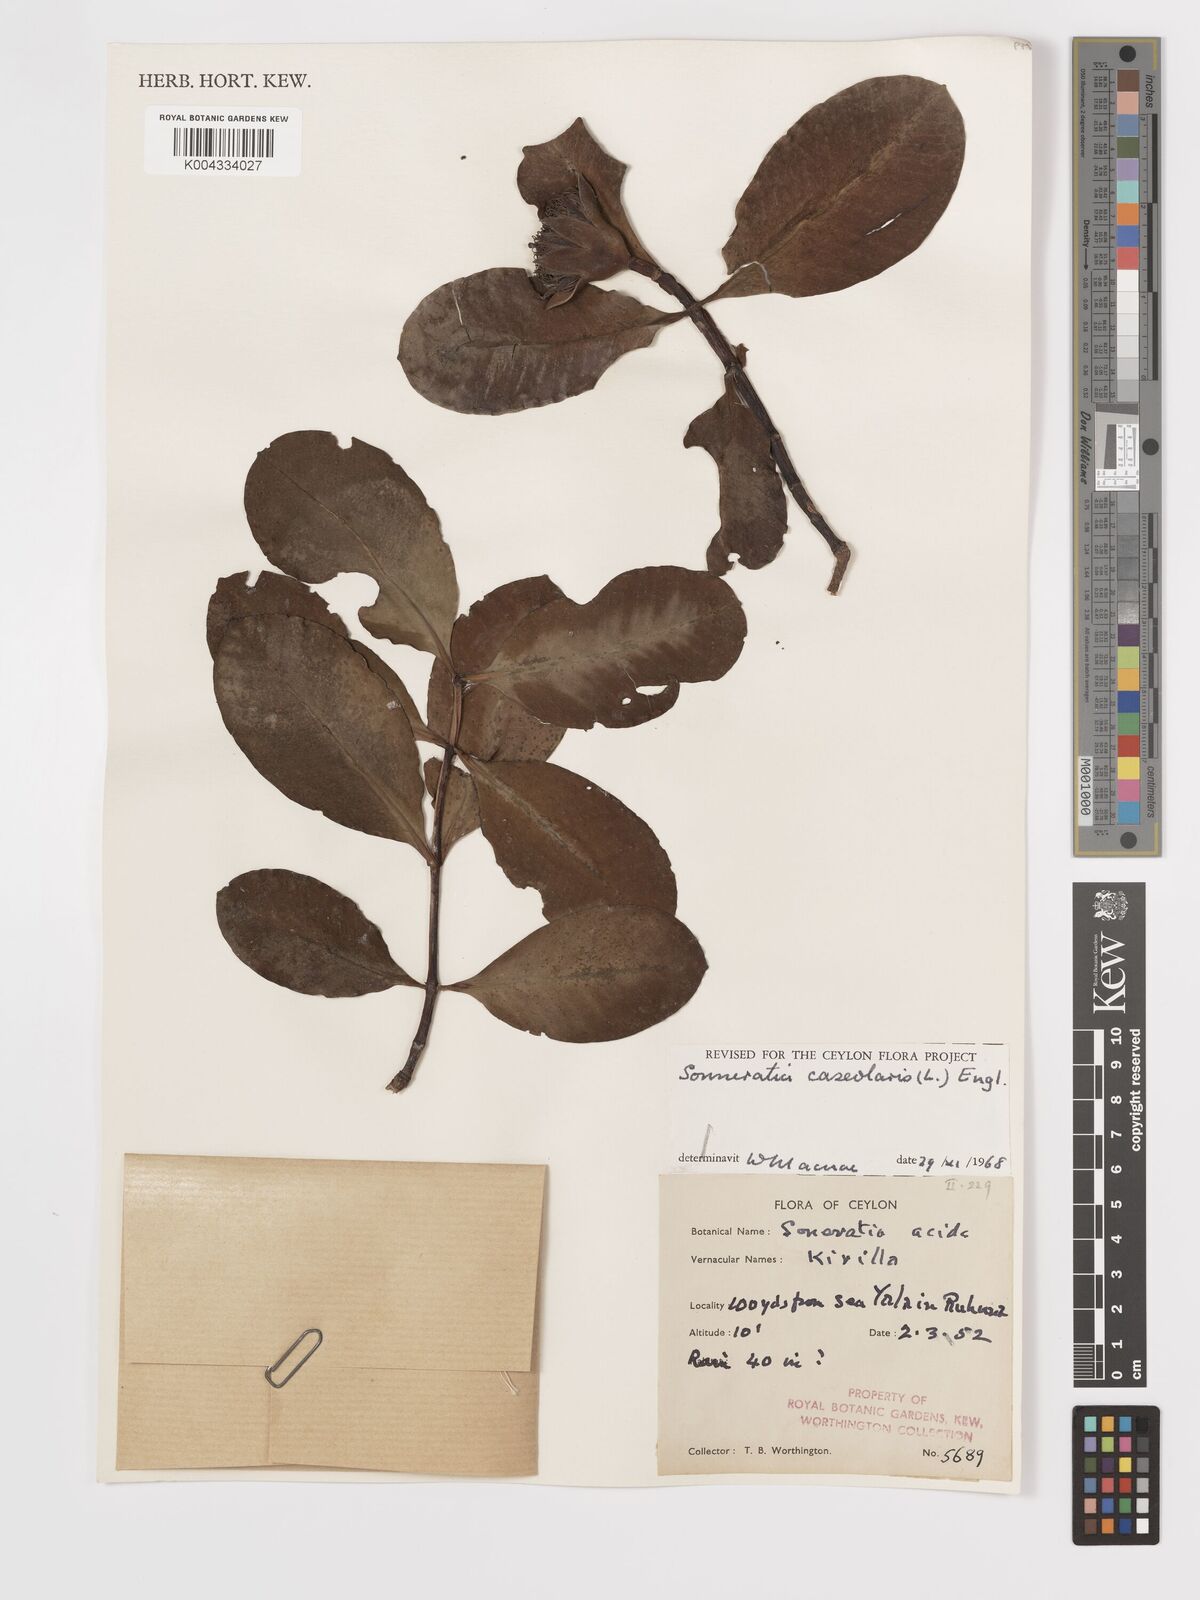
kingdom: Plantae
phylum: Tracheophyta
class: Magnoliopsida
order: Myrtales
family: Lythraceae
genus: Sonneratia
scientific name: Sonneratia caseolaris
